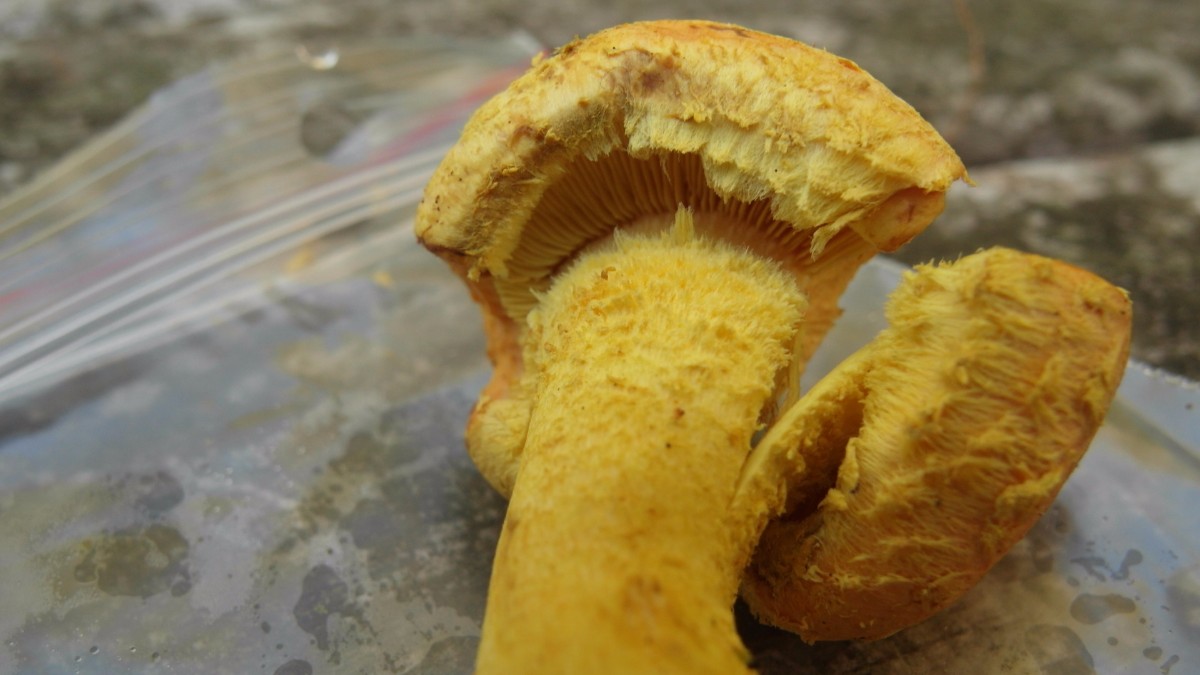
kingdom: Fungi
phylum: Basidiomycota
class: Agaricomycetes
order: Agaricales
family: Strophariaceae
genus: Pholiota
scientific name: Pholiota flammans
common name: flamme-skælhat
